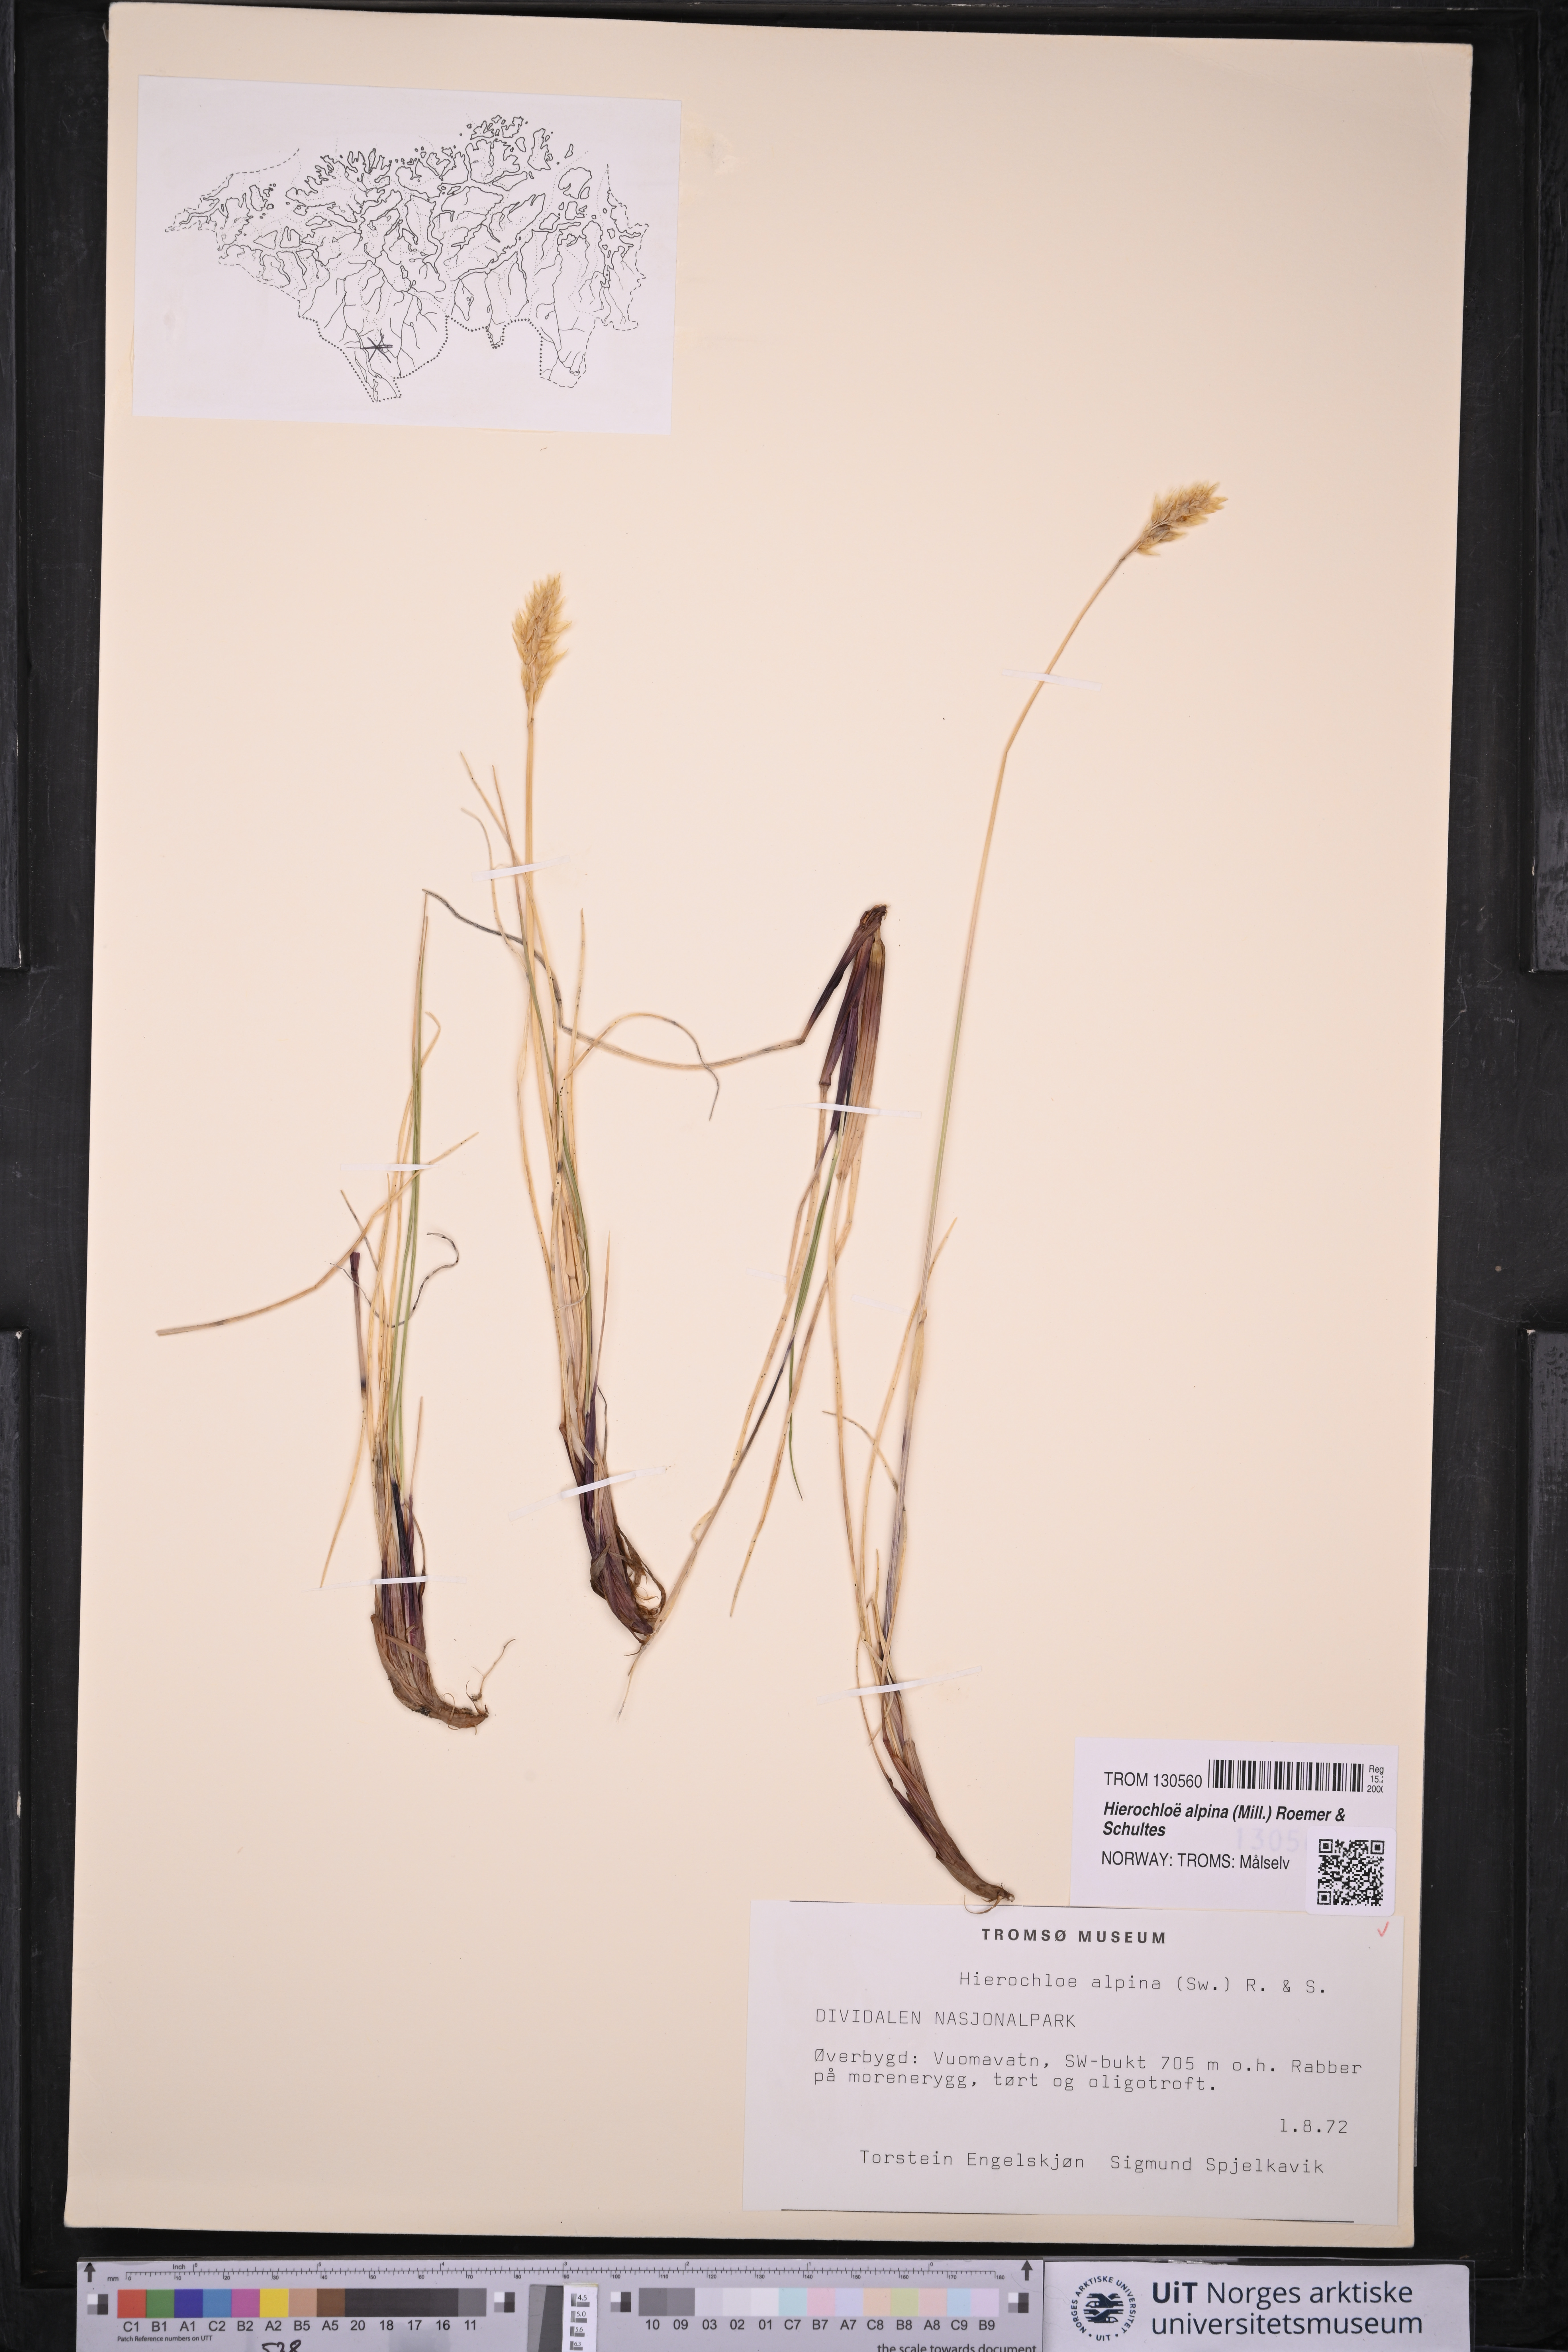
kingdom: Plantae
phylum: Tracheophyta
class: Liliopsida
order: Poales
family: Poaceae
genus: Anthoxanthum
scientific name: Anthoxanthum monticola
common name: Alpine sweetgrass
